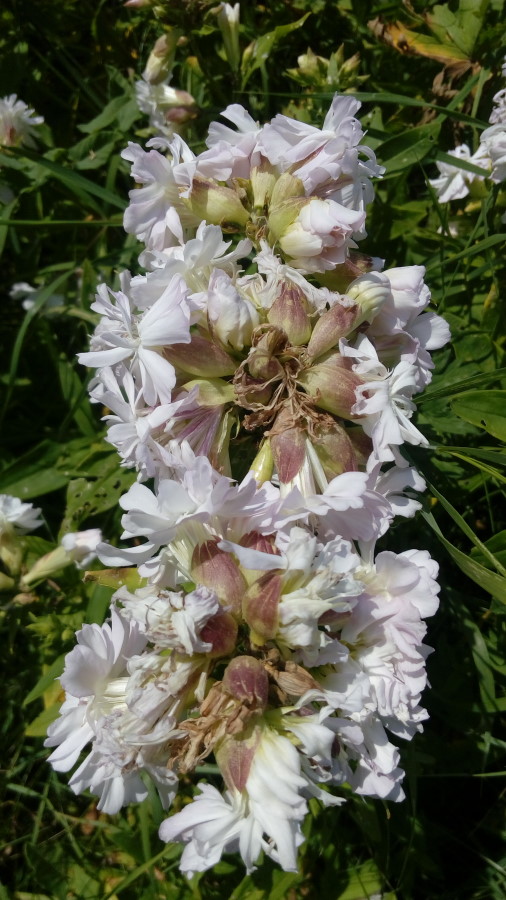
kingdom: Plantae
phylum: Tracheophyta
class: Magnoliopsida
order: Caryophyllales
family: Caryophyllaceae
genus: Saponaria
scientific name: Saponaria officinalis
